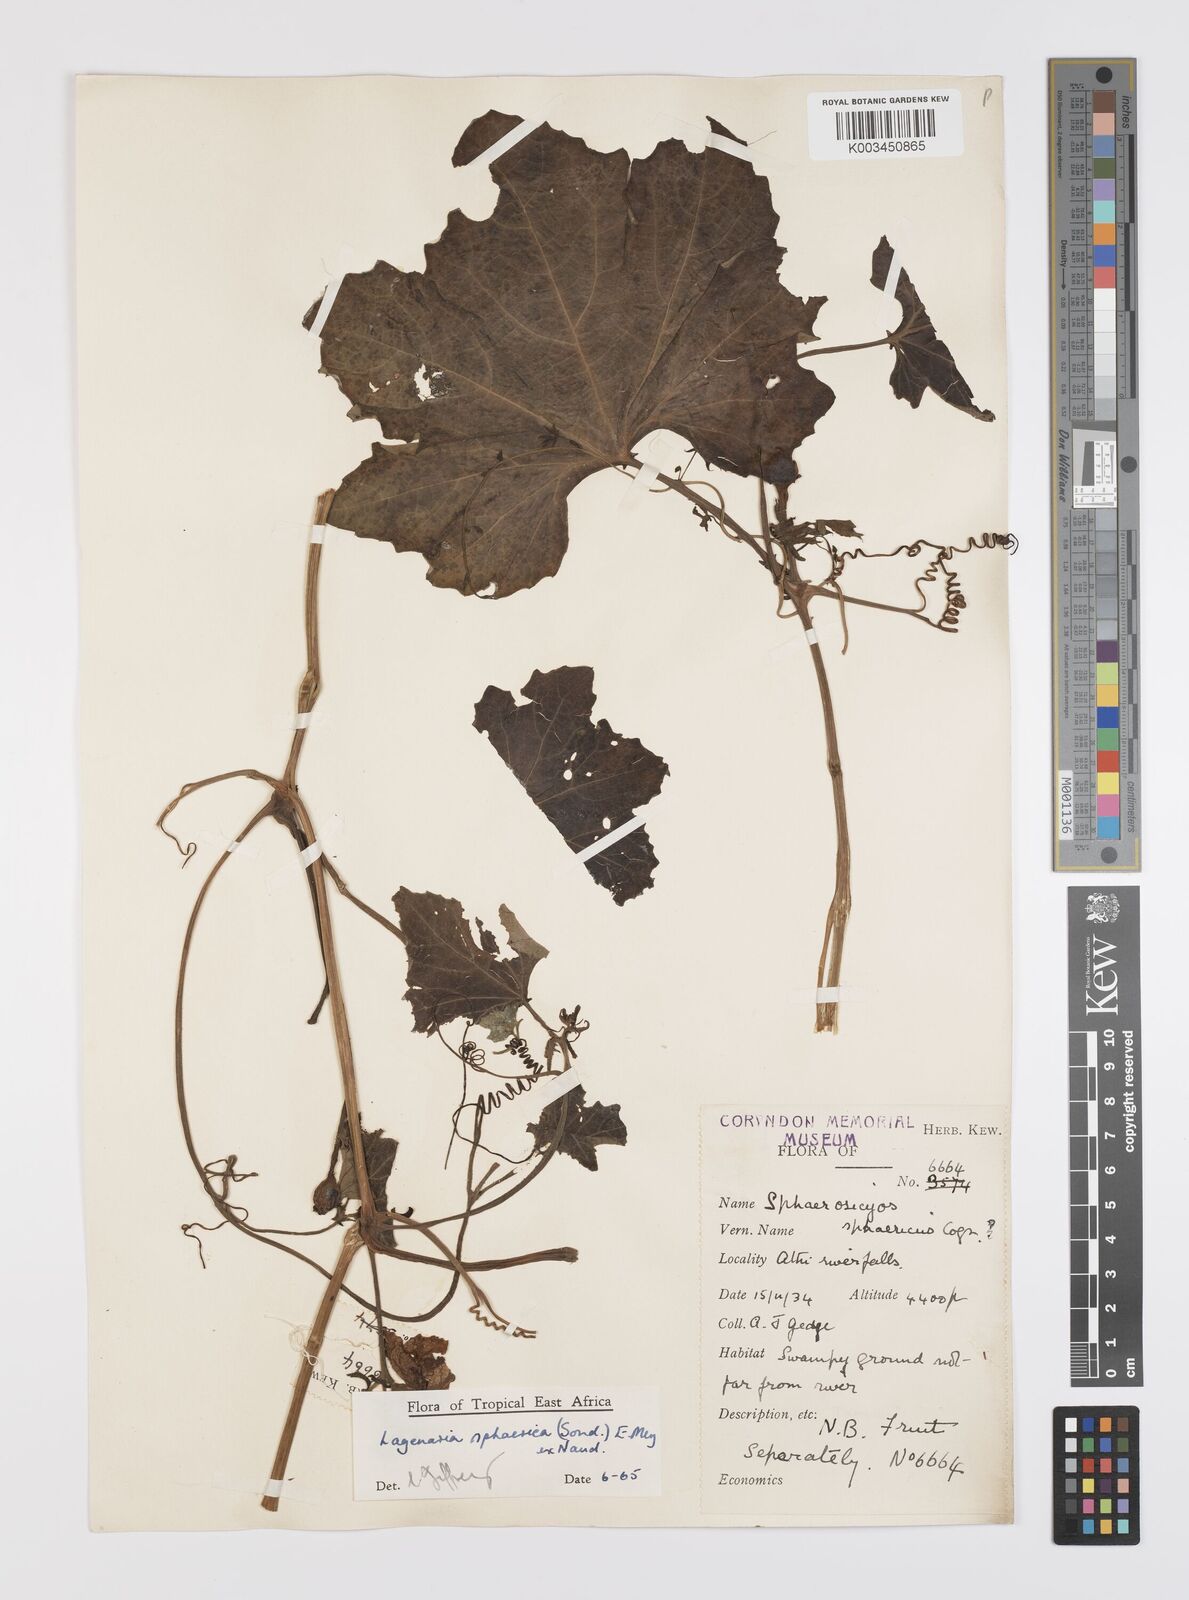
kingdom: Plantae
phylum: Tracheophyta
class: Magnoliopsida
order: Cucurbitales
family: Cucurbitaceae
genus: Lagenaria
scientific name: Lagenaria sphaerica
